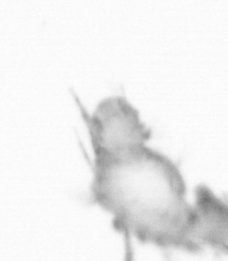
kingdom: Animalia
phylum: Annelida
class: Polychaeta
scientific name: Polychaeta
